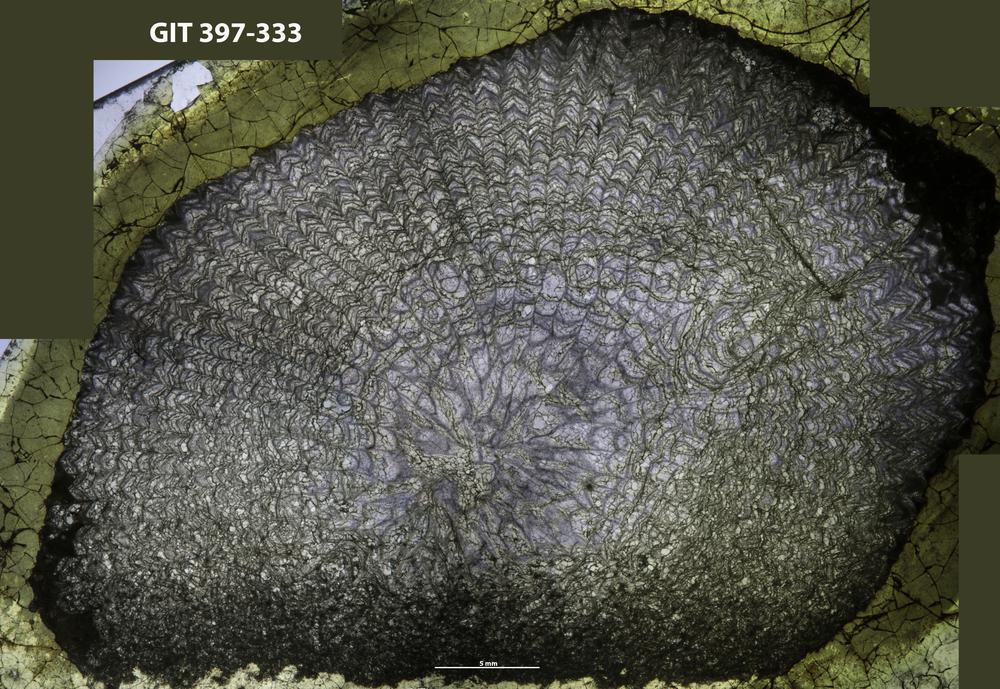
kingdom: Animalia
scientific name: Animalia
